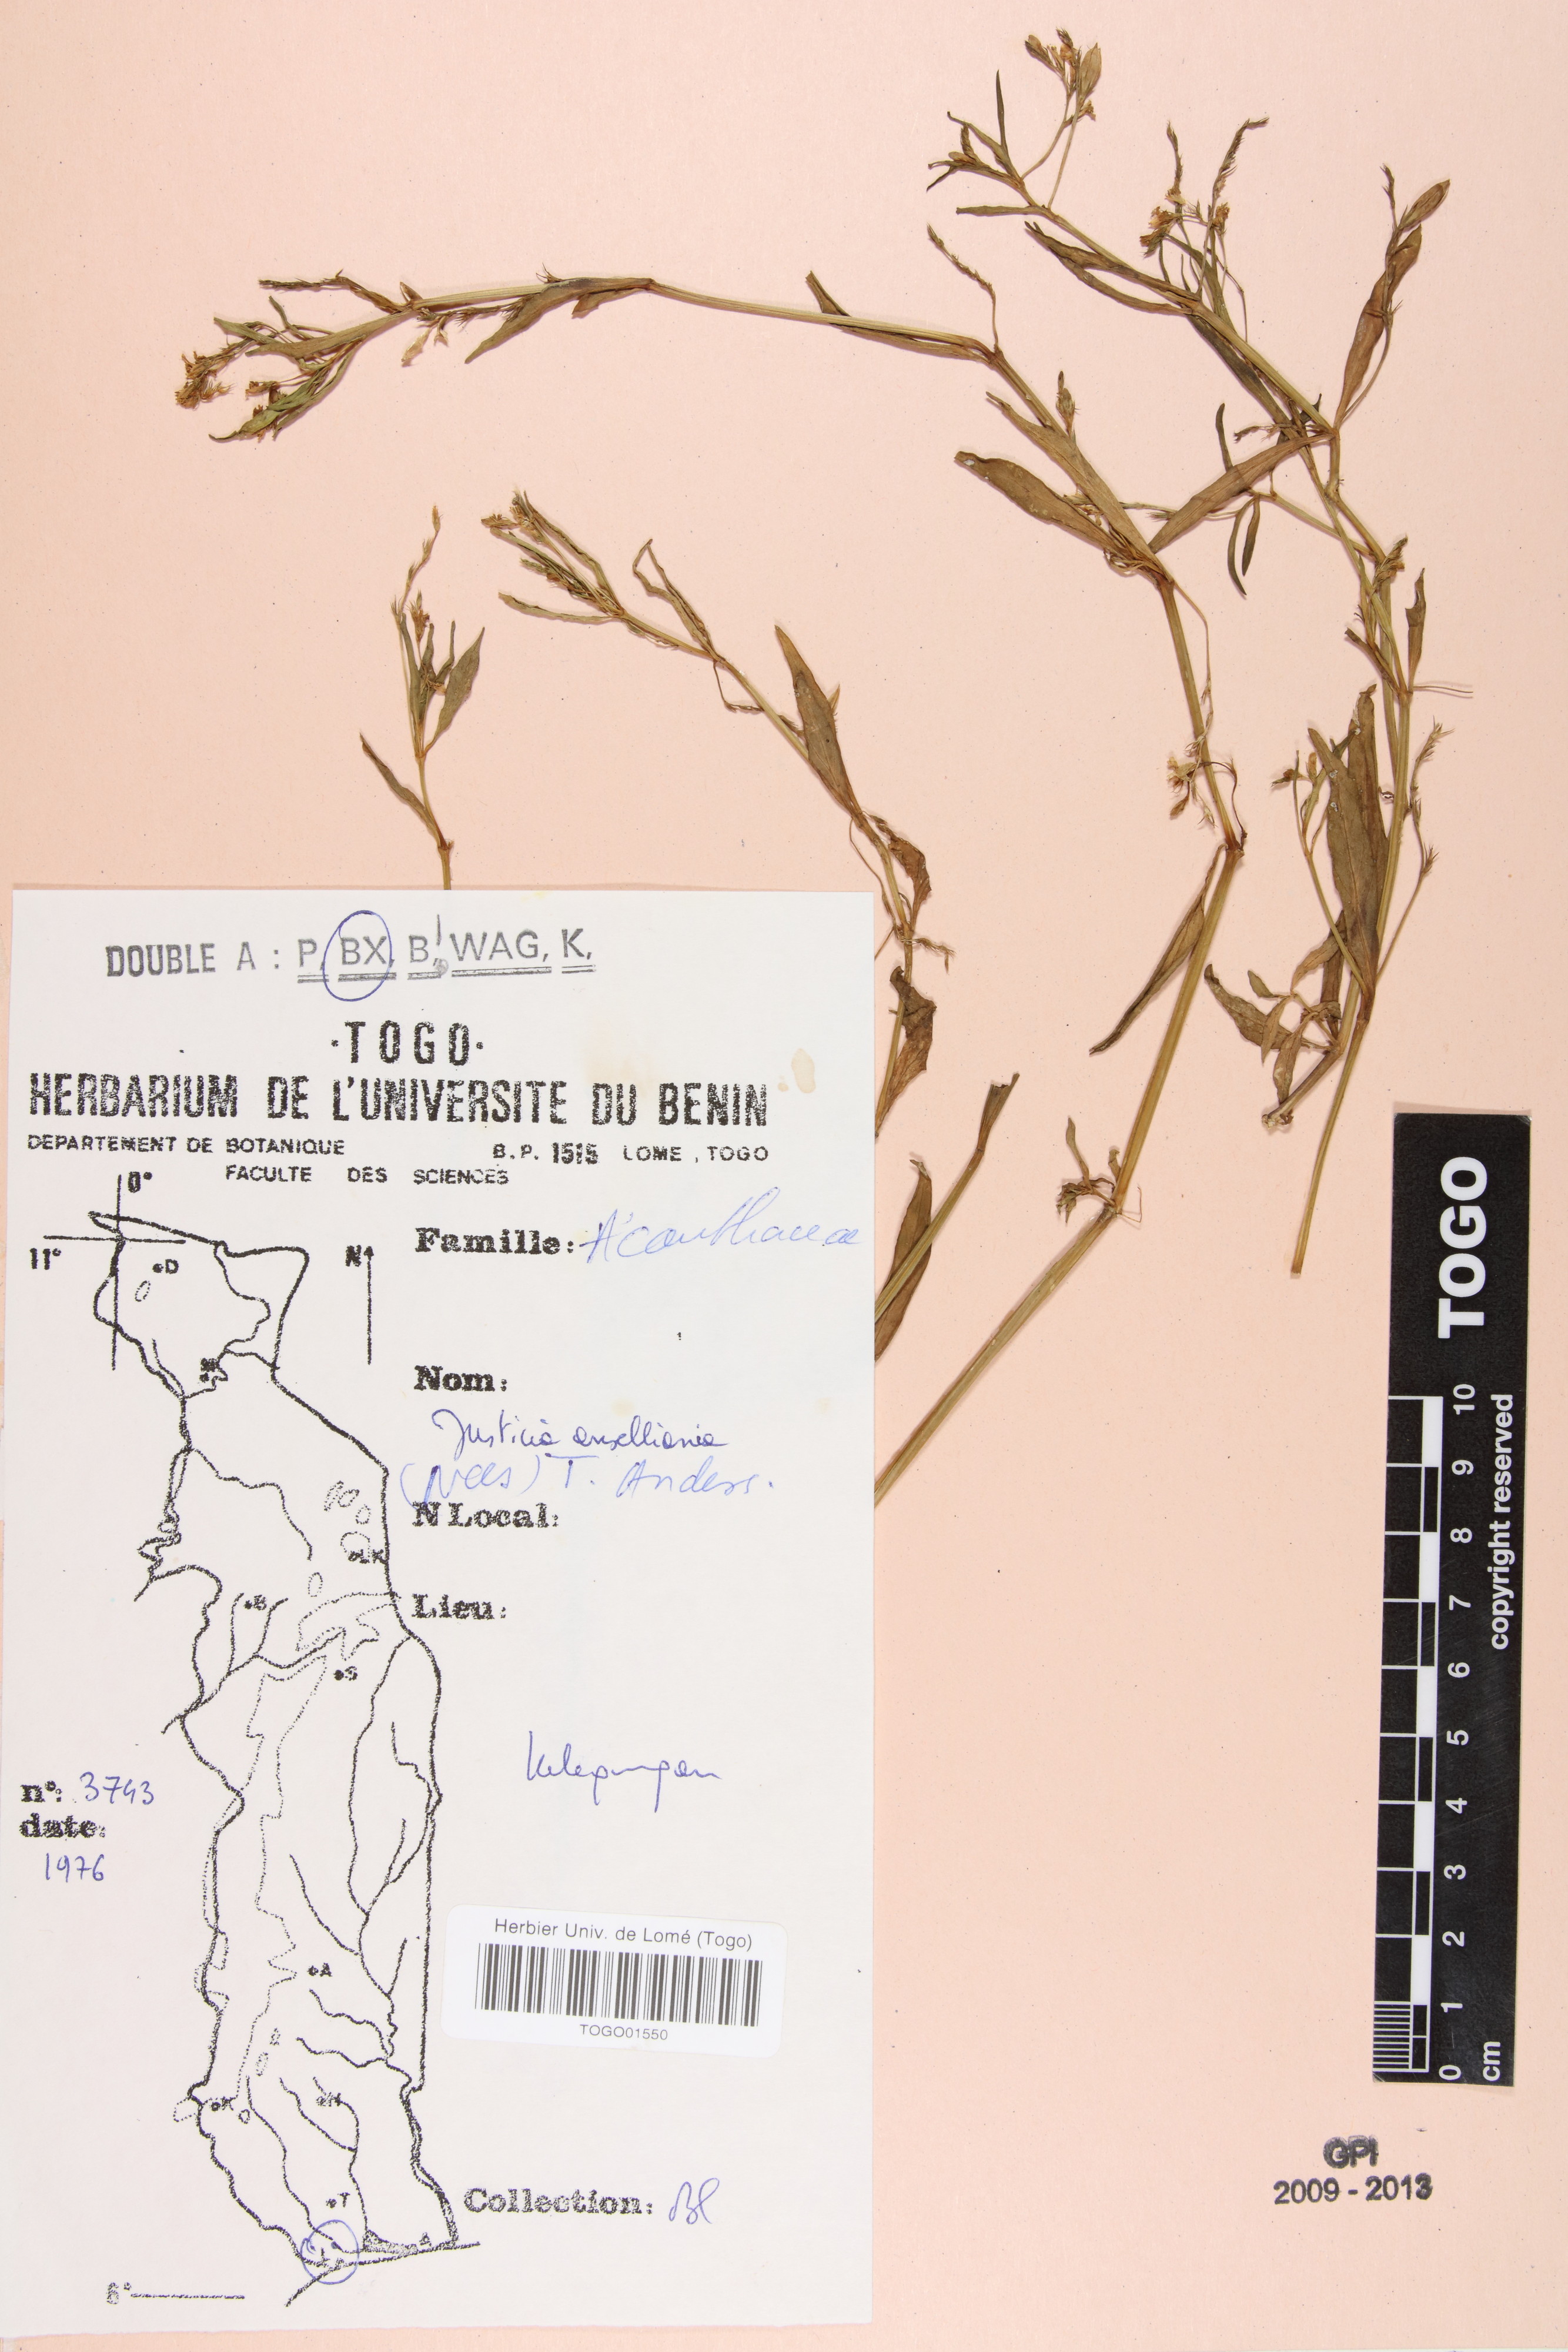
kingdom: Plantae
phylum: Tracheophyta
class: Magnoliopsida
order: Lamiales
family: Acanthaceae
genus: Justicia
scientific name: Justicia anselliana
